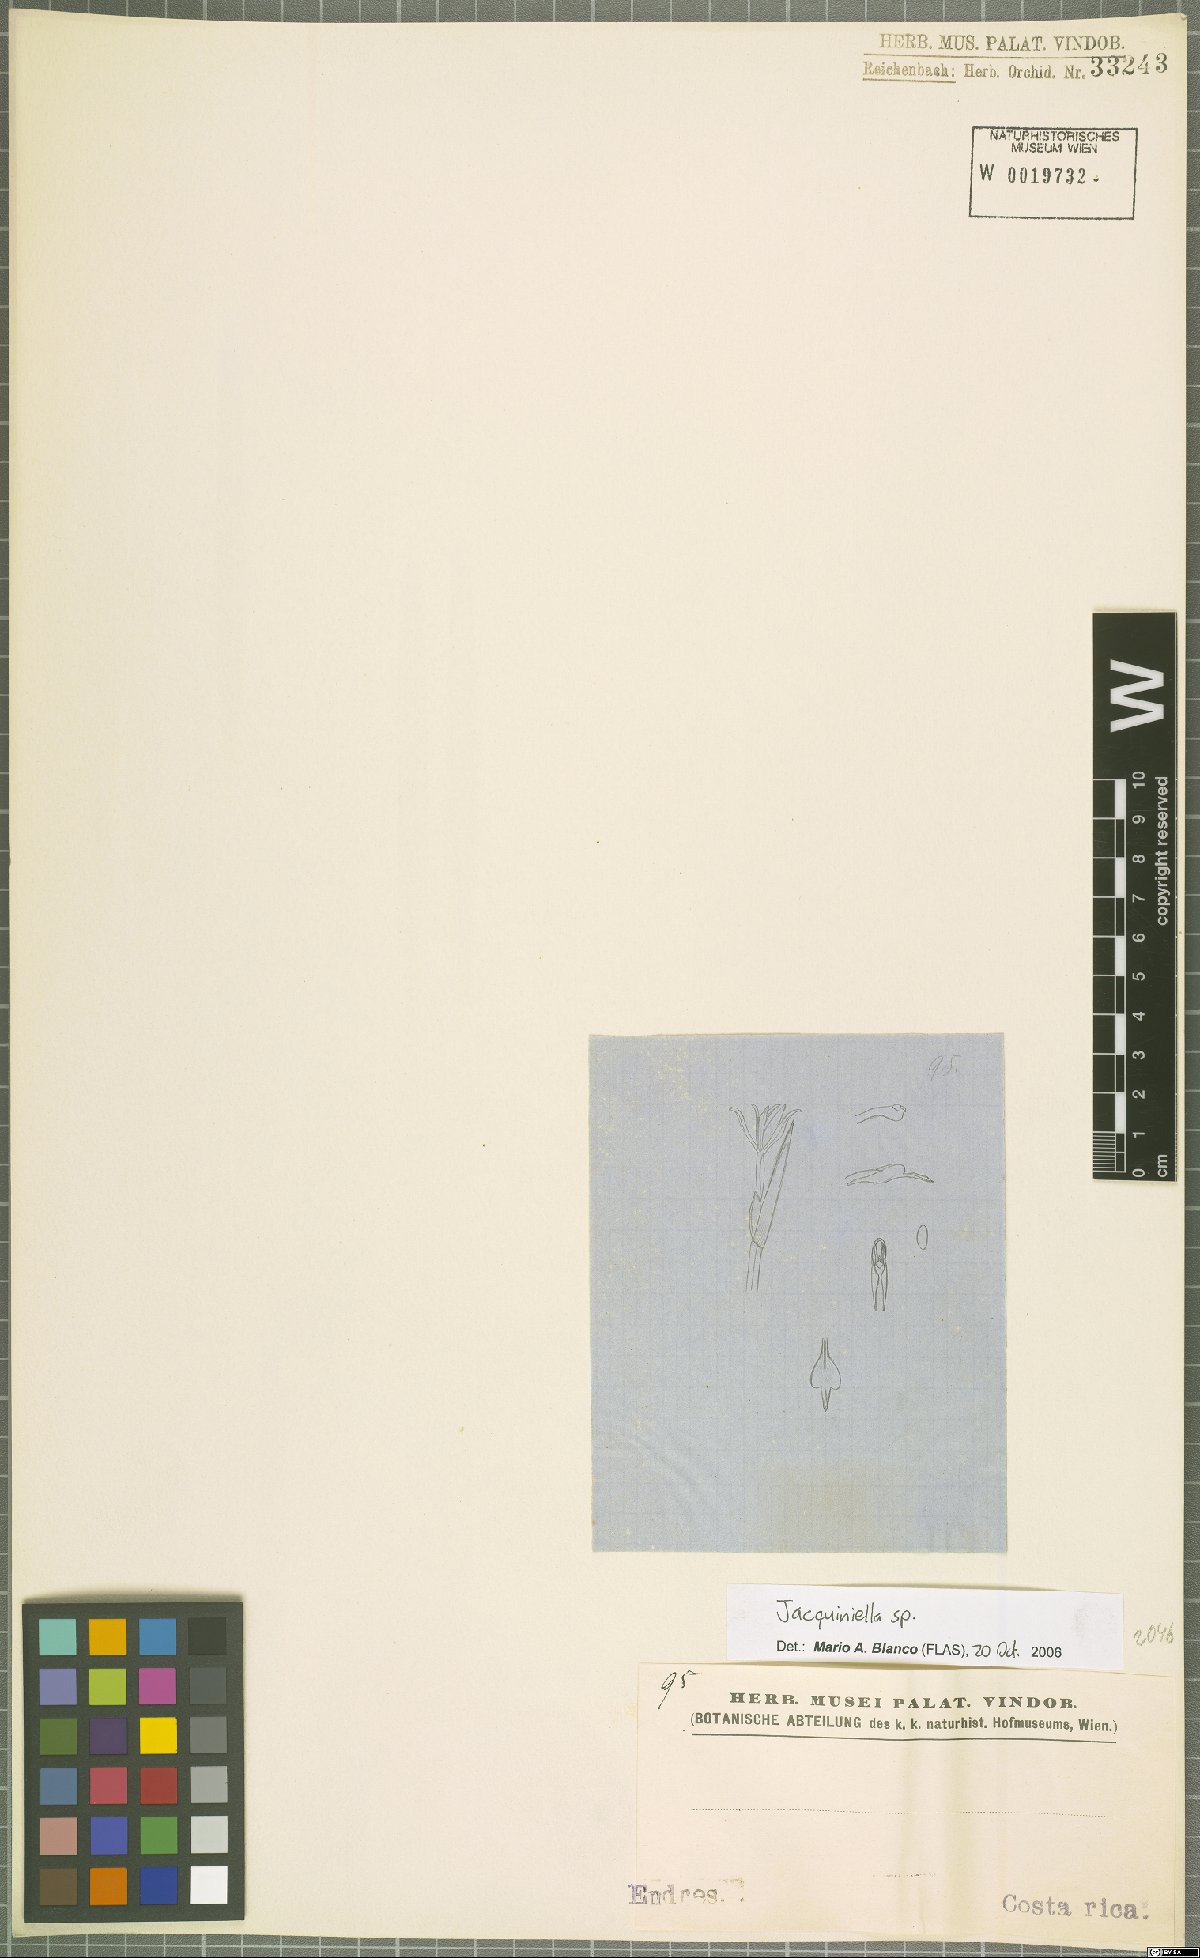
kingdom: Plantae
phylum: Tracheophyta
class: Liliopsida
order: Asparagales
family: Orchidaceae
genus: Jacquiniella
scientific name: Jacquiniella
